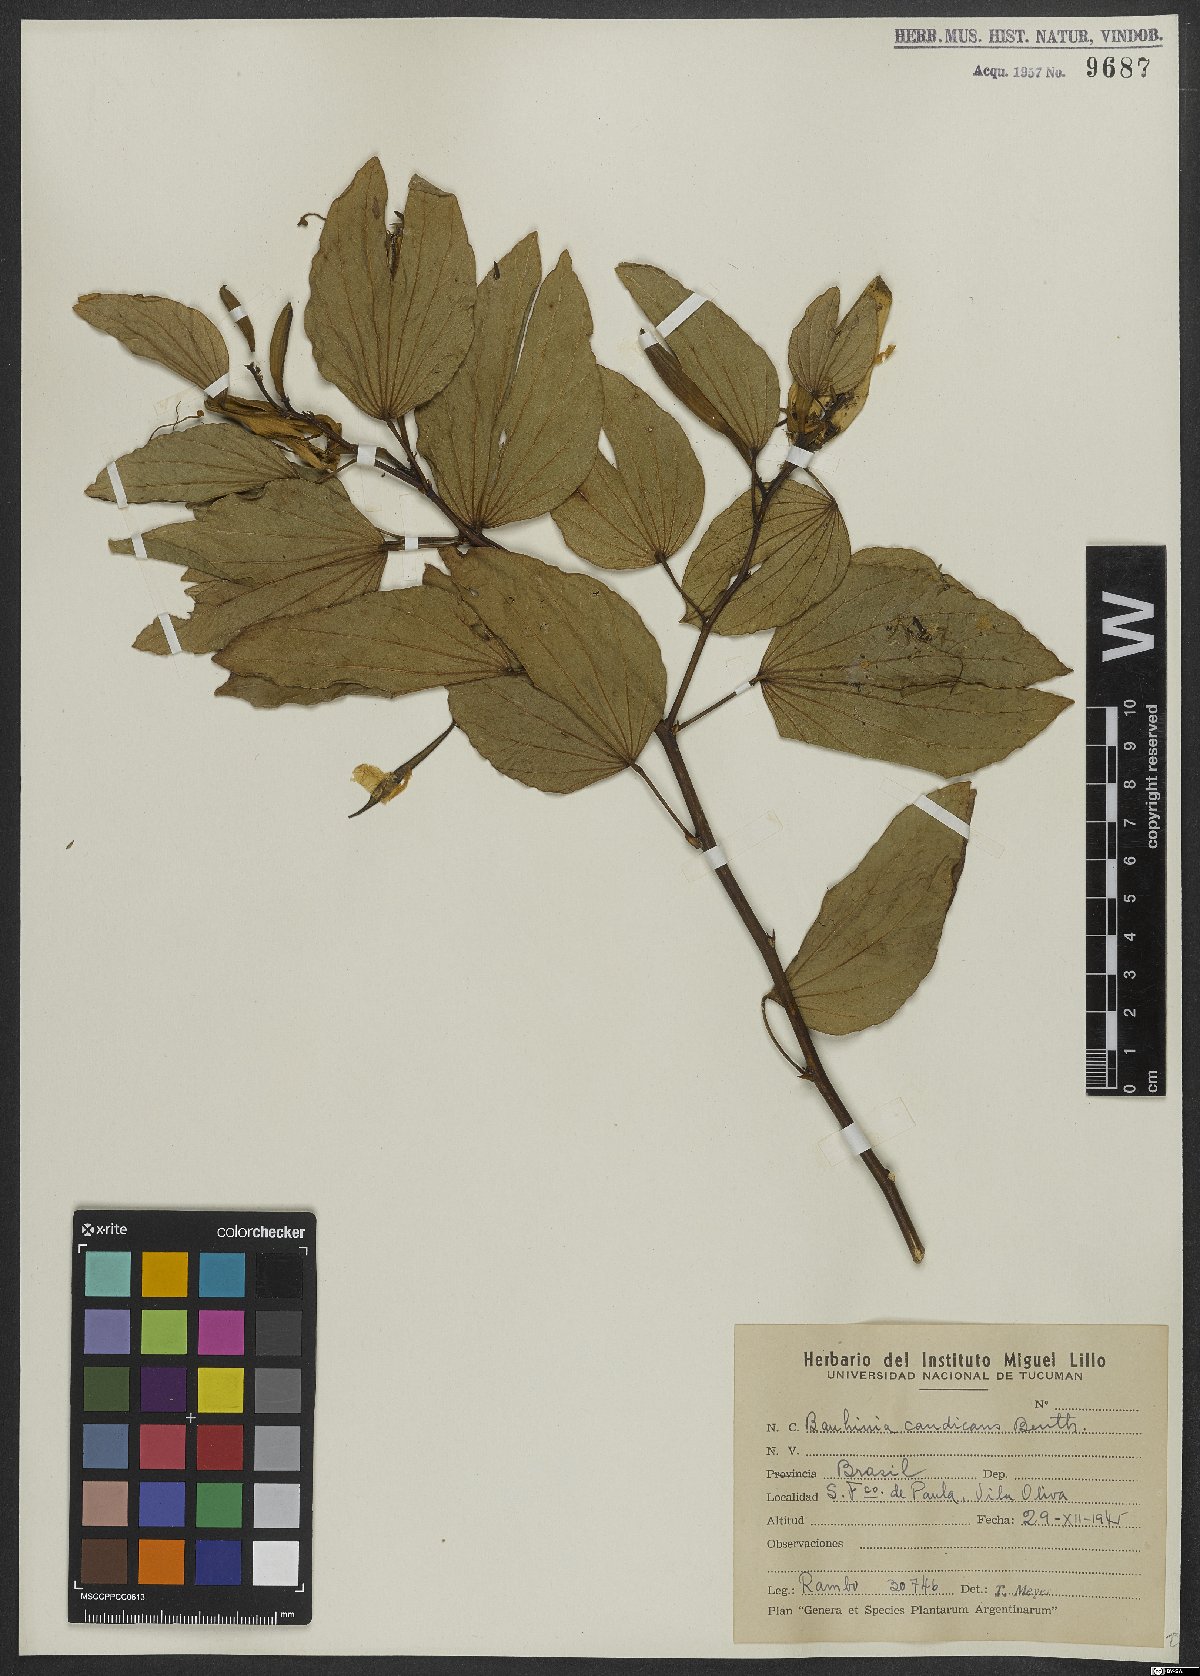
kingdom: Plantae
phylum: Tracheophyta
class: Magnoliopsida
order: Fabales
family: Fabaceae
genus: Bauhinia
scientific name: Bauhinia forficata
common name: Orchid tree
